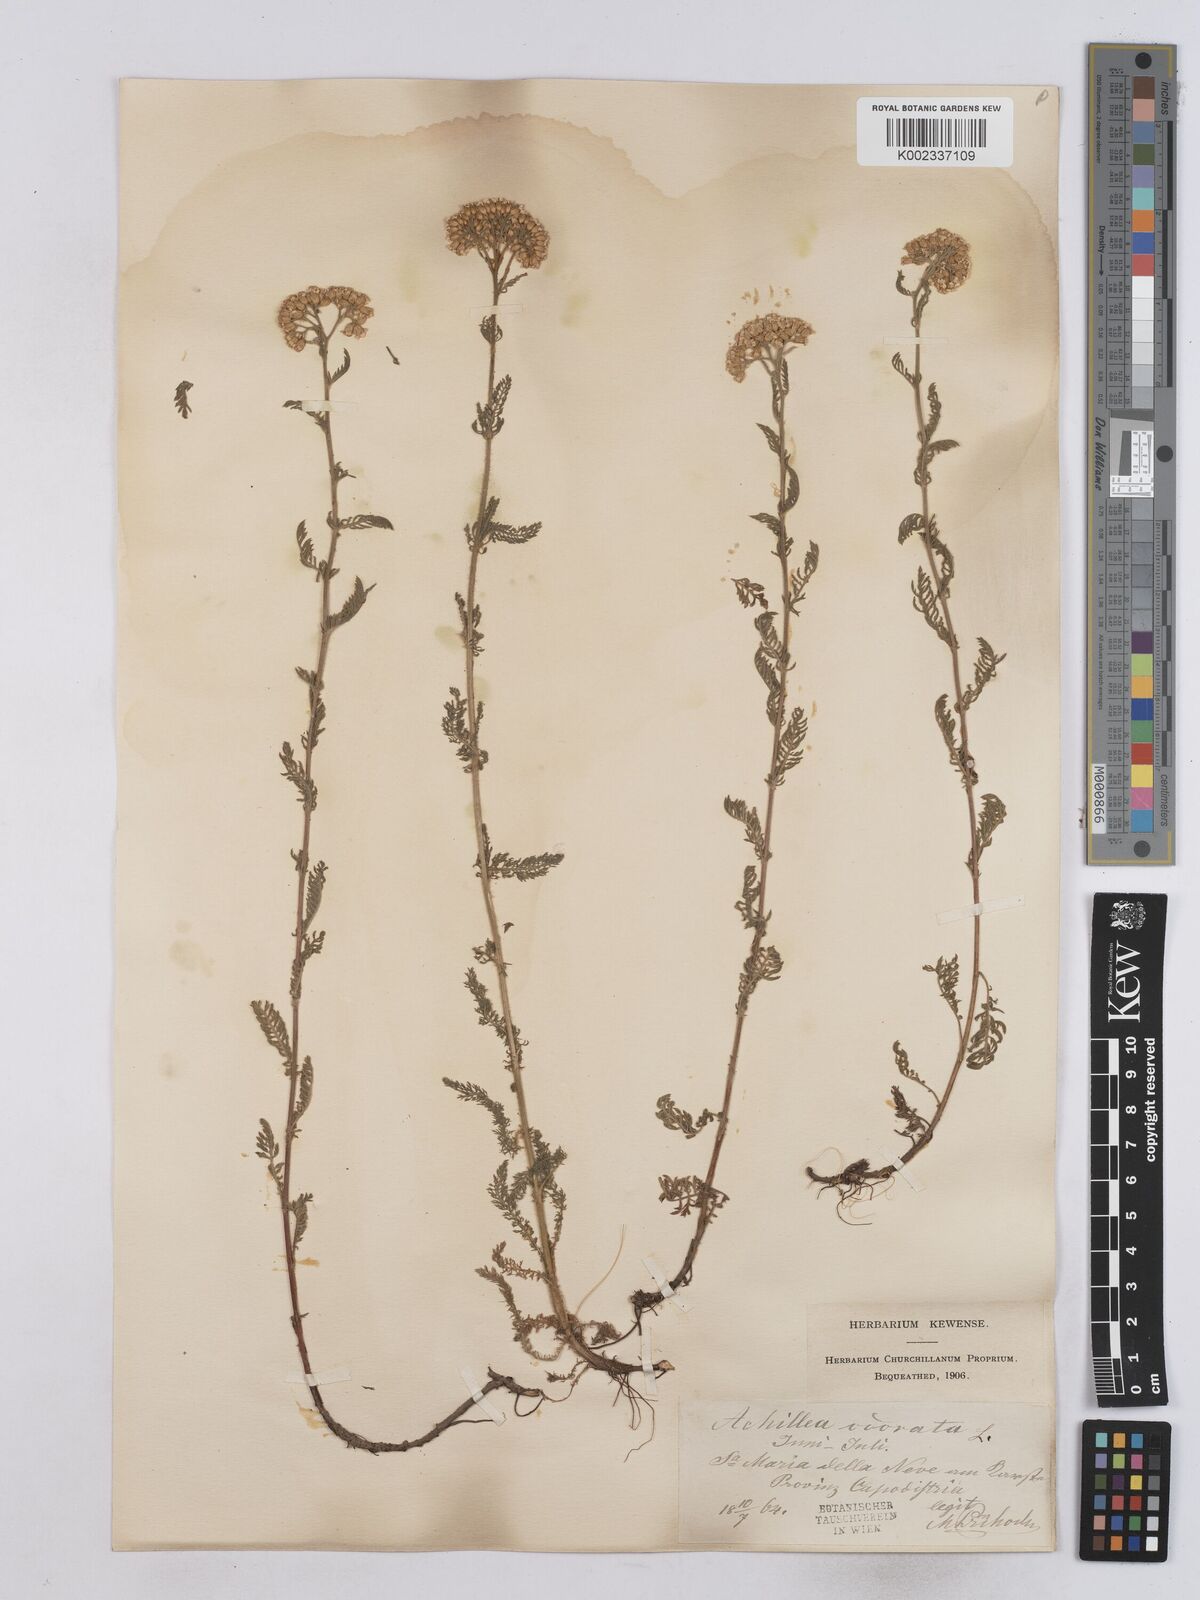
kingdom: Plantae
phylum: Tracheophyta
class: Magnoliopsida
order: Asterales
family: Asteraceae
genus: Achillea
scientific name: Achillea virescens
